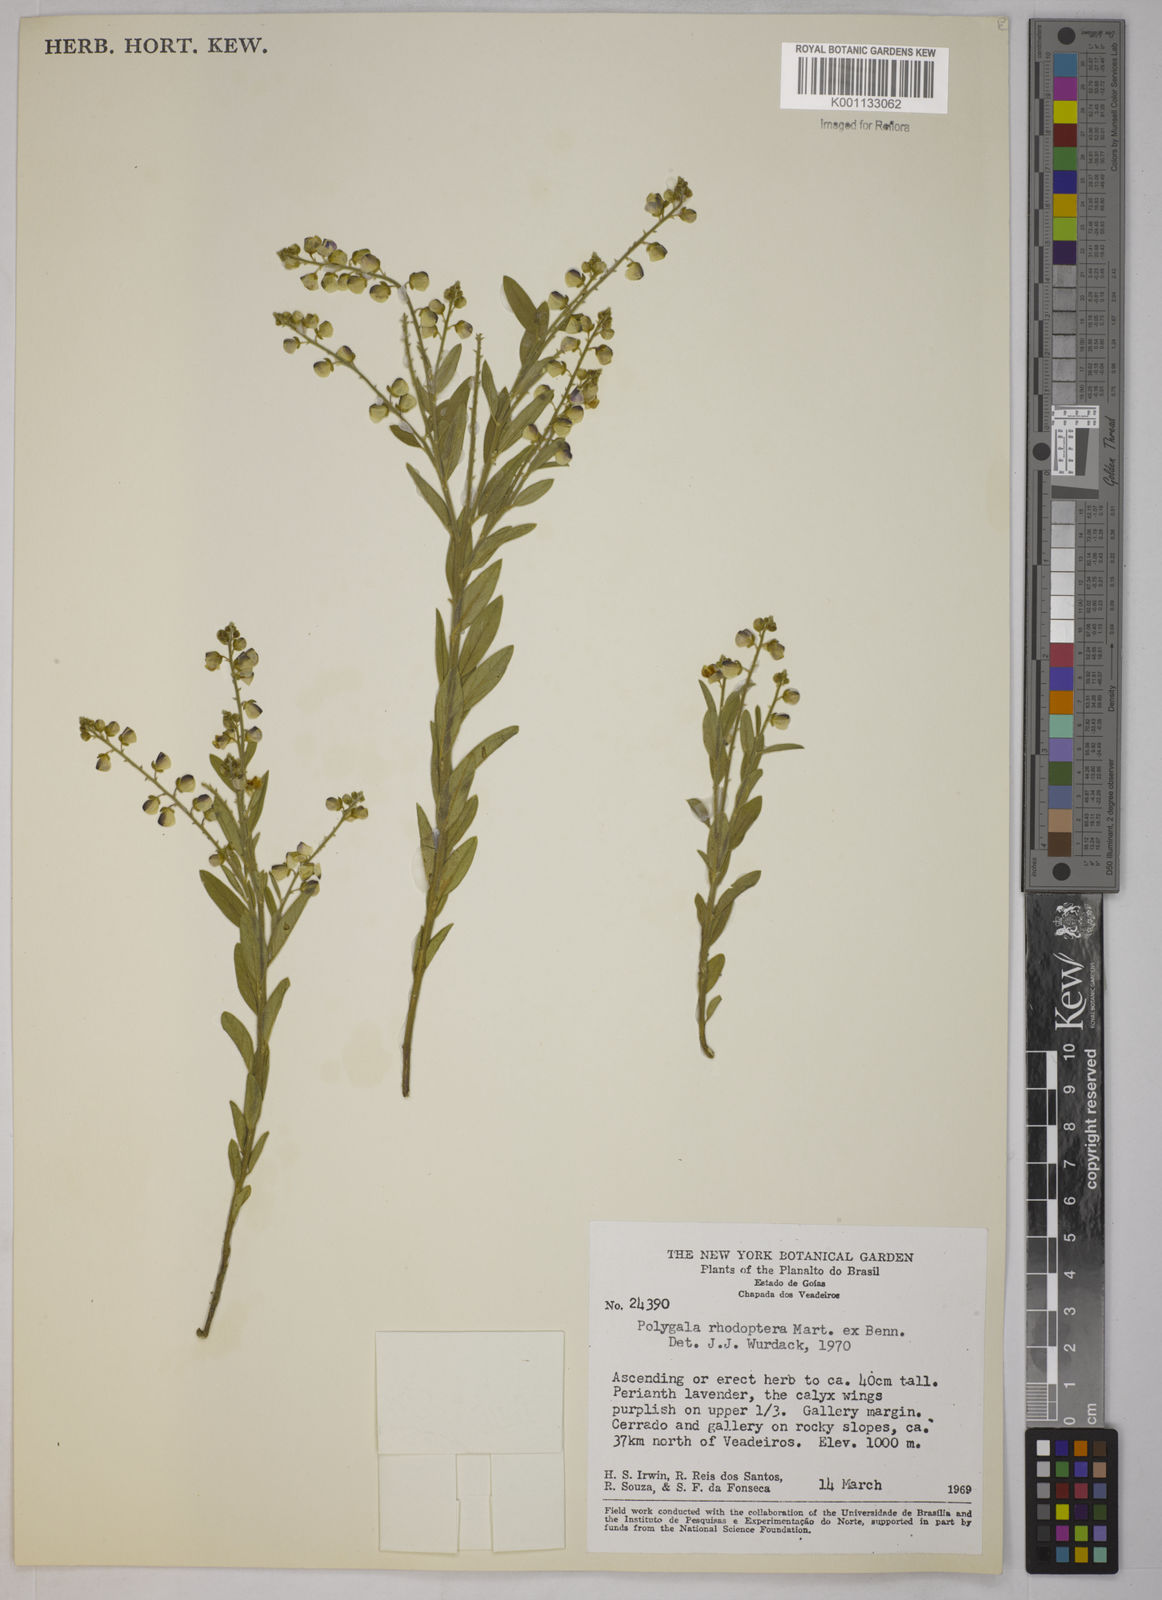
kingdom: Plantae
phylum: Tracheophyta
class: Magnoliopsida
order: Fabales
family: Polygalaceae
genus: Asemeia
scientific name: Asemeia rhodoptera
